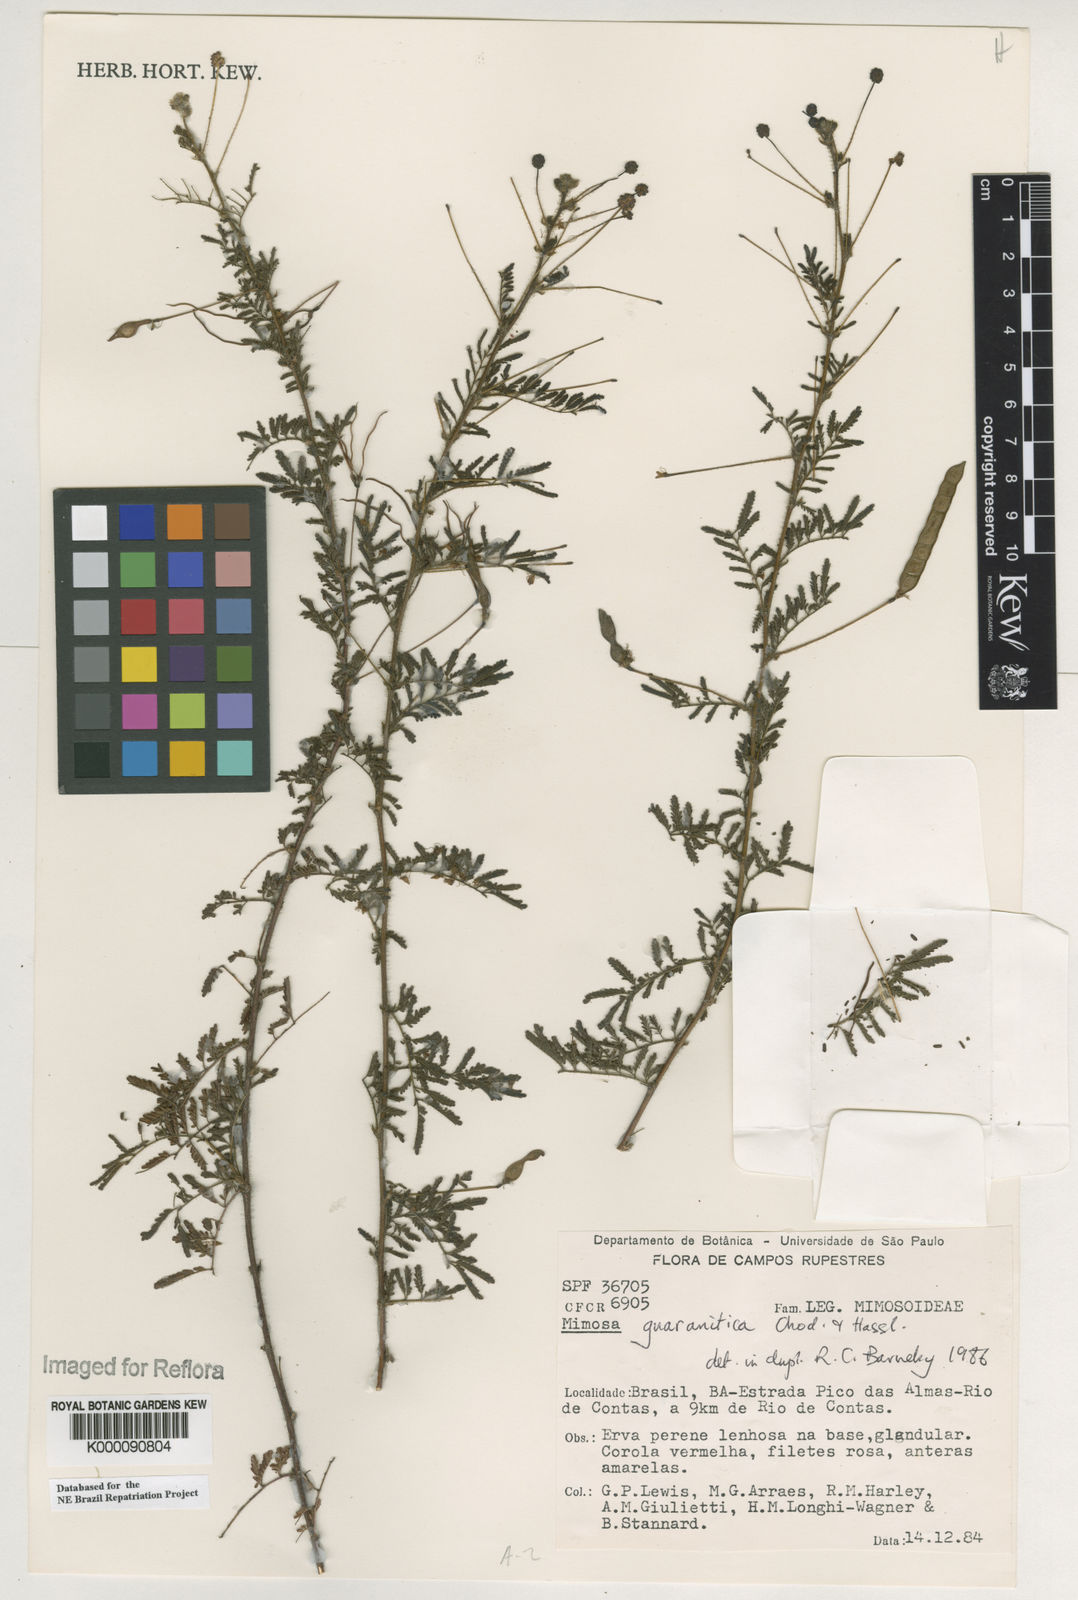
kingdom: Plantae
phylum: Tracheophyta
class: Magnoliopsida
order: Fabales
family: Fabaceae
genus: Mimosa
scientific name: Mimosa guaranitica
